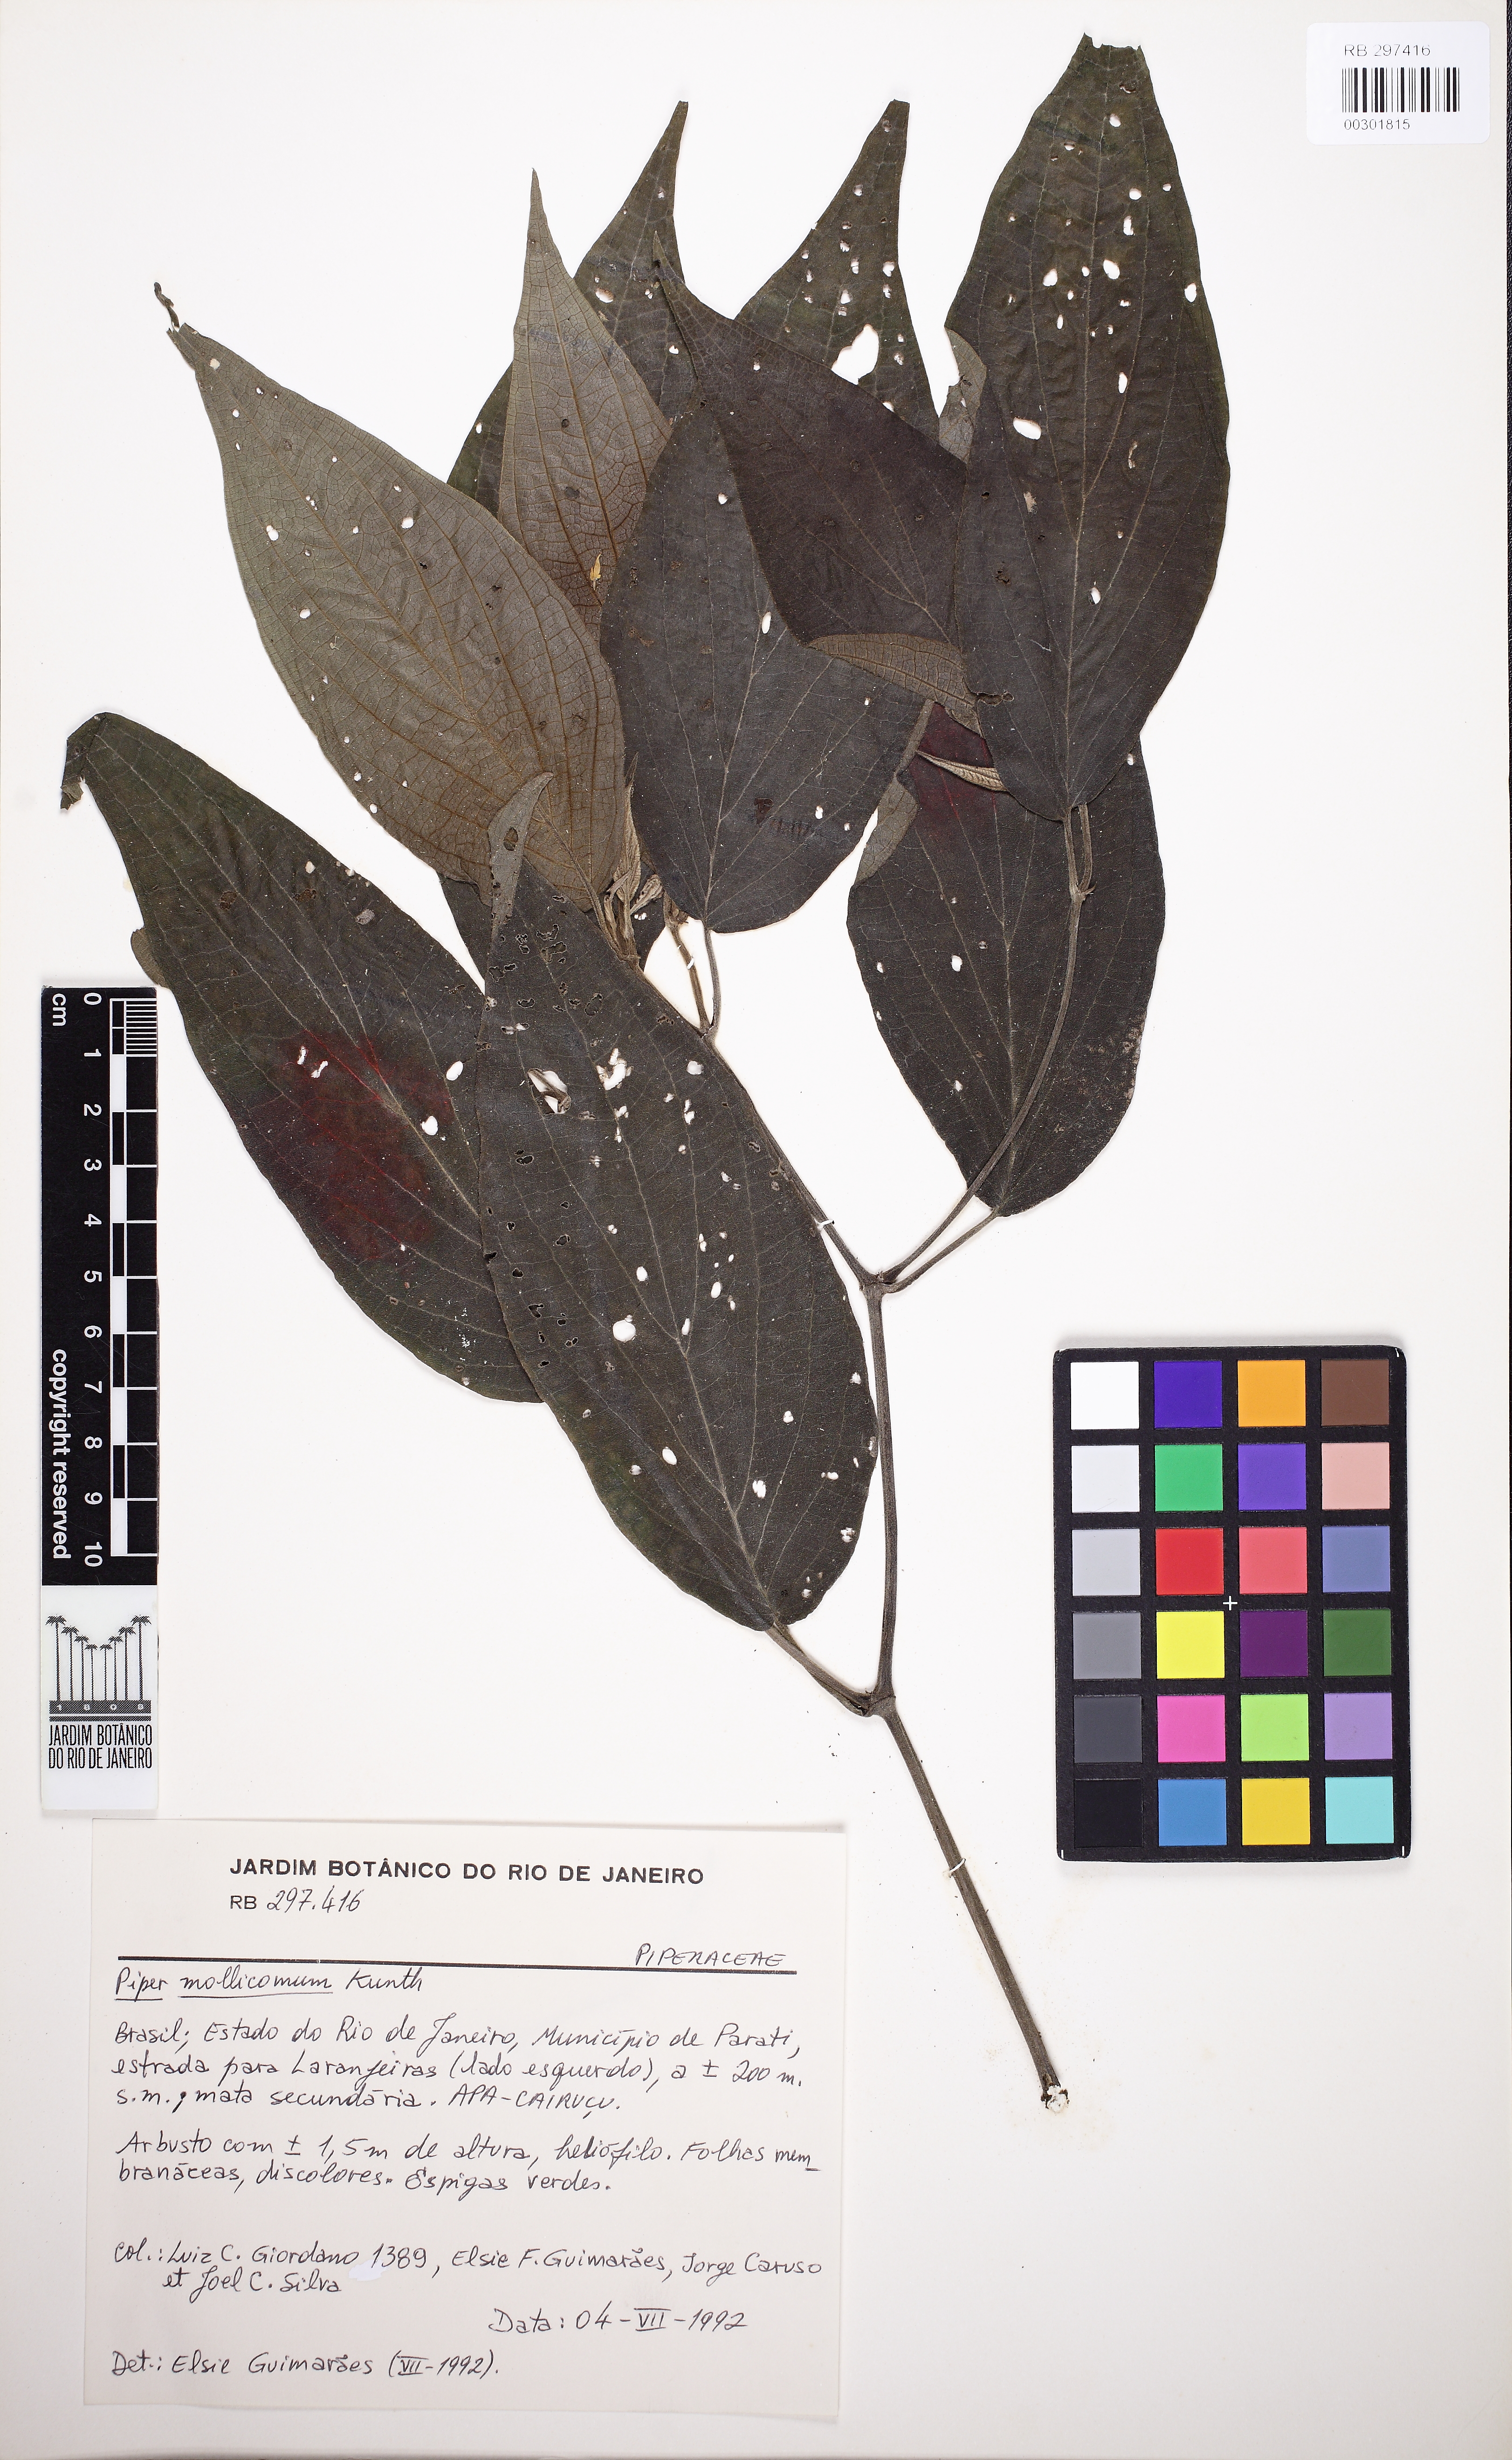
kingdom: Plantae
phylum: Tracheophyta
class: Magnoliopsida
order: Piperales
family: Piperaceae
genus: Piper
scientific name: Piper mollicomum
